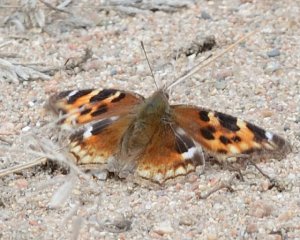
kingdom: Animalia
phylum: Arthropoda
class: Insecta
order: Lepidoptera
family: Nymphalidae
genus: Polygonia
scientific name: Polygonia vaualbum
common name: Compton Tortoiseshell
